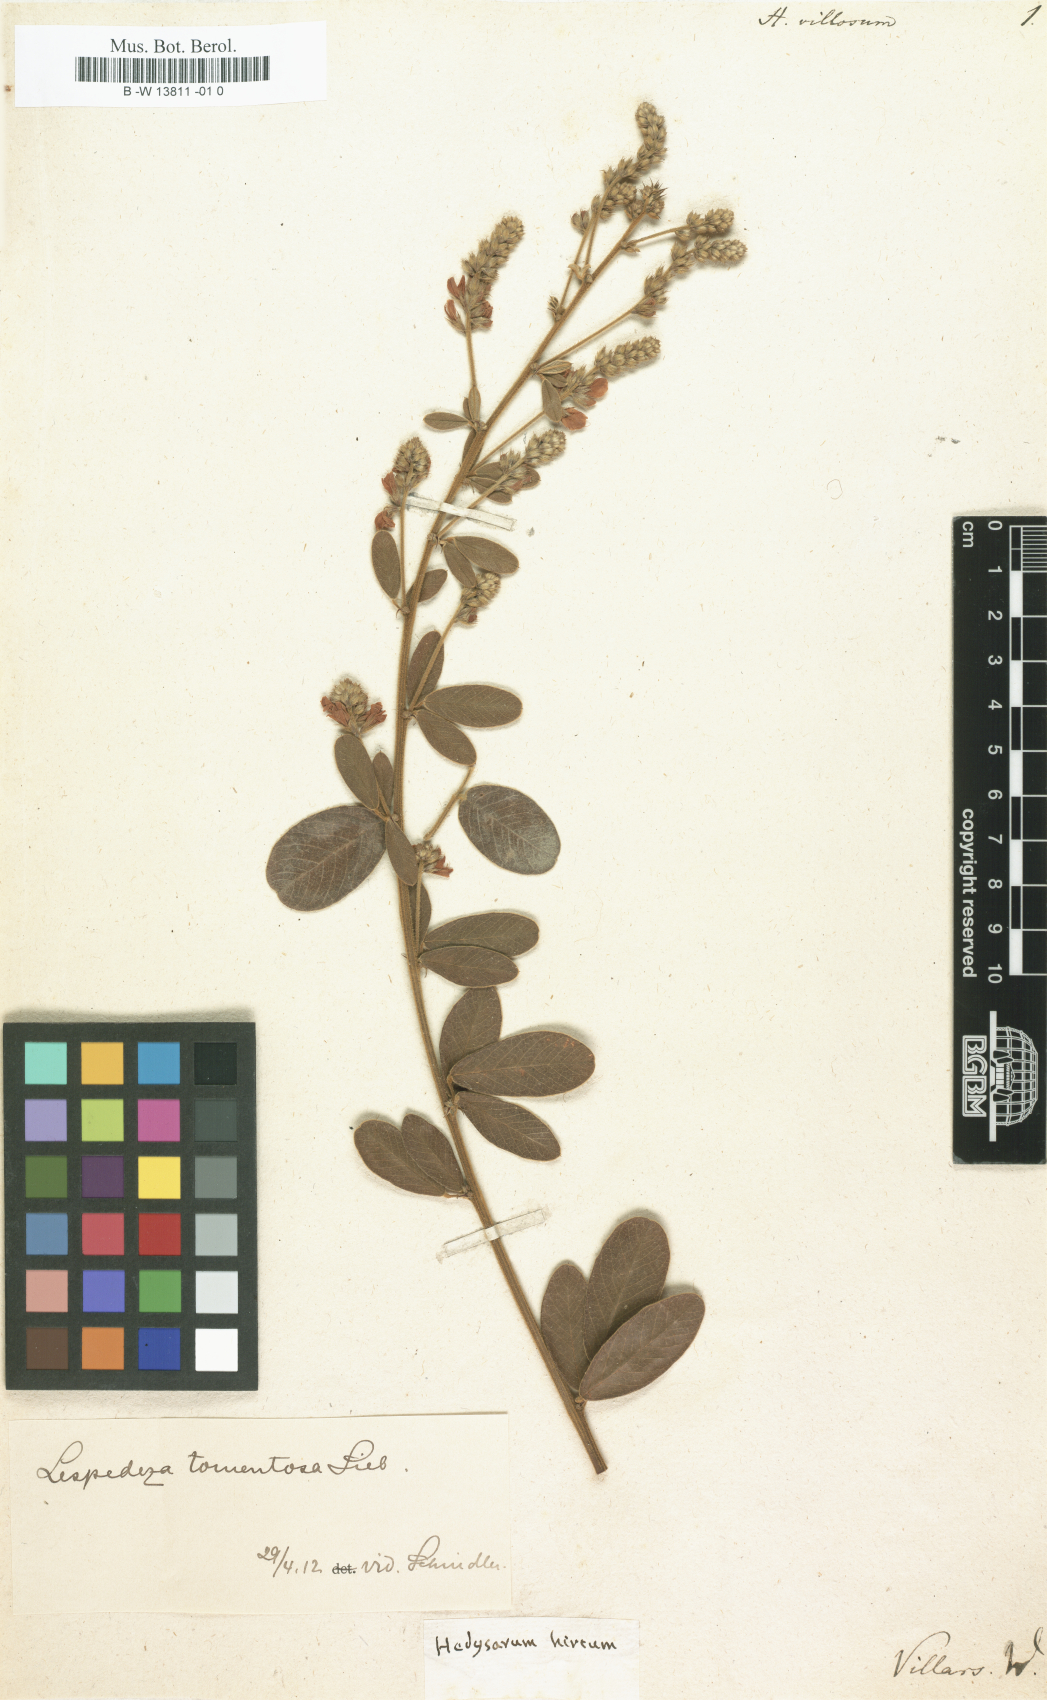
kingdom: Plantae
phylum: Tracheophyta
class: Magnoliopsida
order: Fabales
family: Fabaceae
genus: Grona
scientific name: Grona barbata
